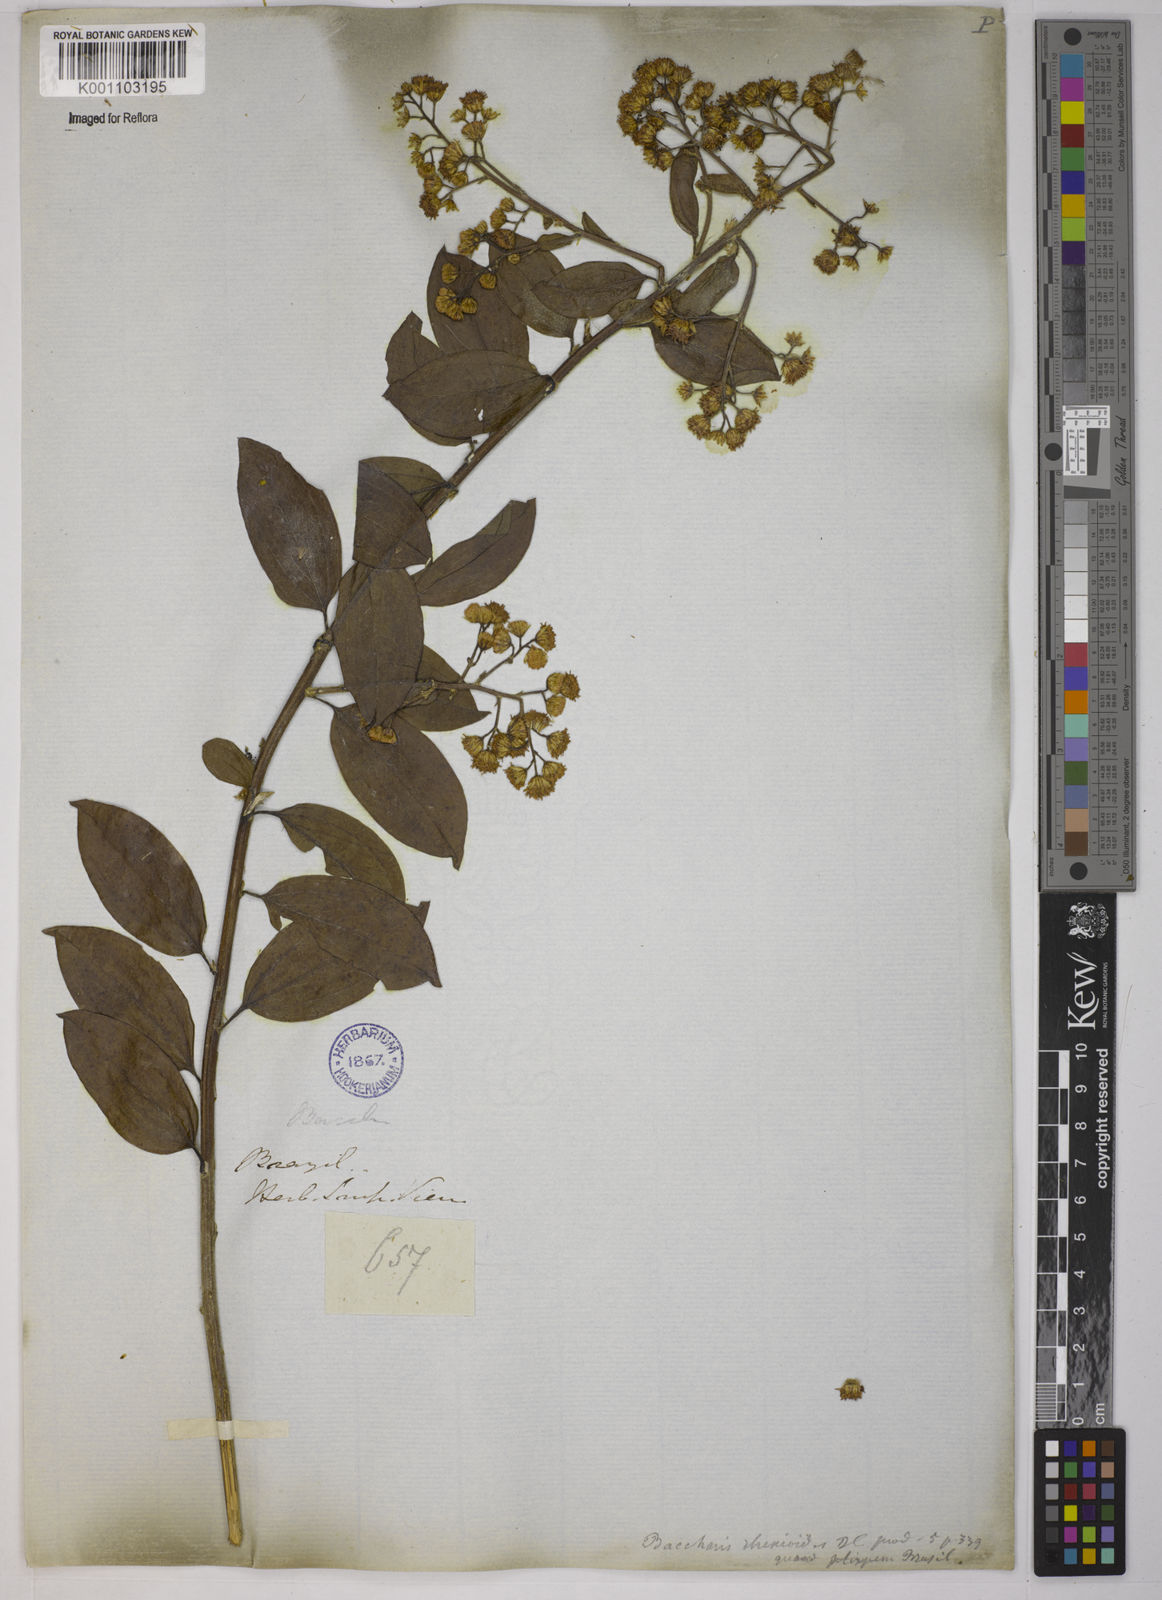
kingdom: Plantae
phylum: Tracheophyta
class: Magnoliopsida
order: Asterales
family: Asteraceae
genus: Baccharis
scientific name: Baccharis trinervis
